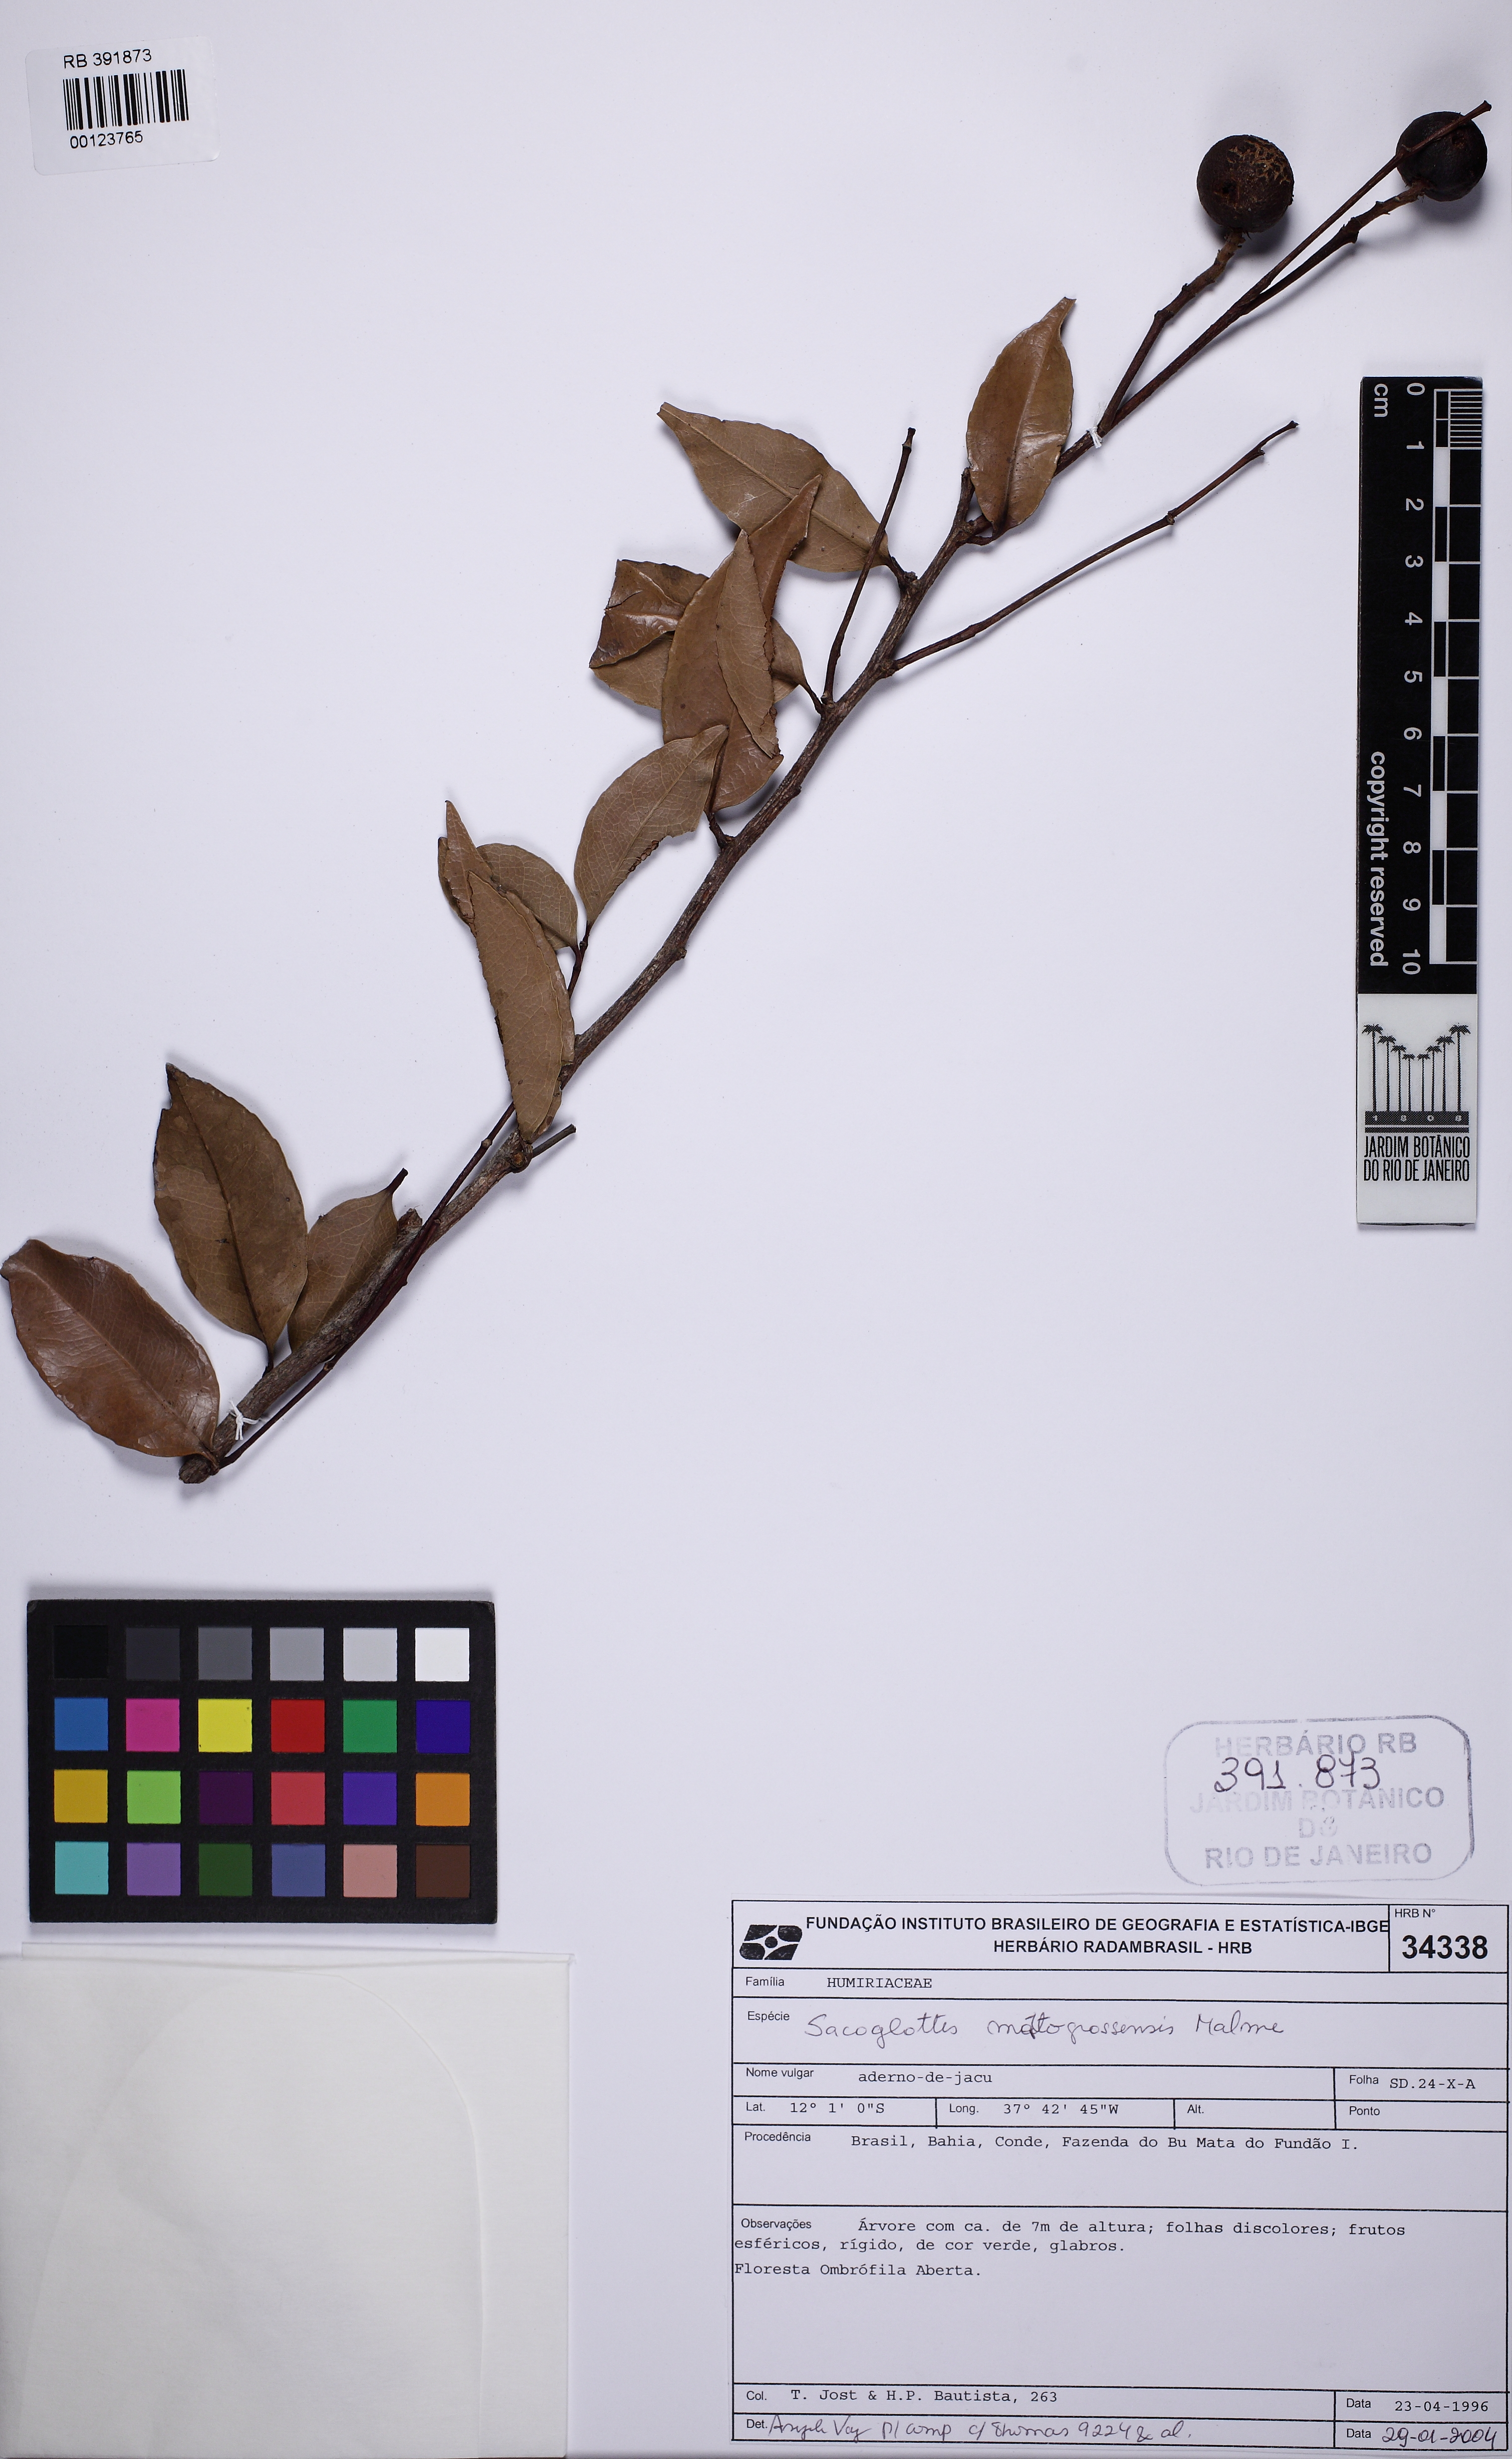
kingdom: Plantae
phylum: Tracheophyta
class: Magnoliopsida
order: Malpighiales
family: Humiriaceae
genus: Sacoglottis
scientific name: Sacoglottis mattogrossensis
